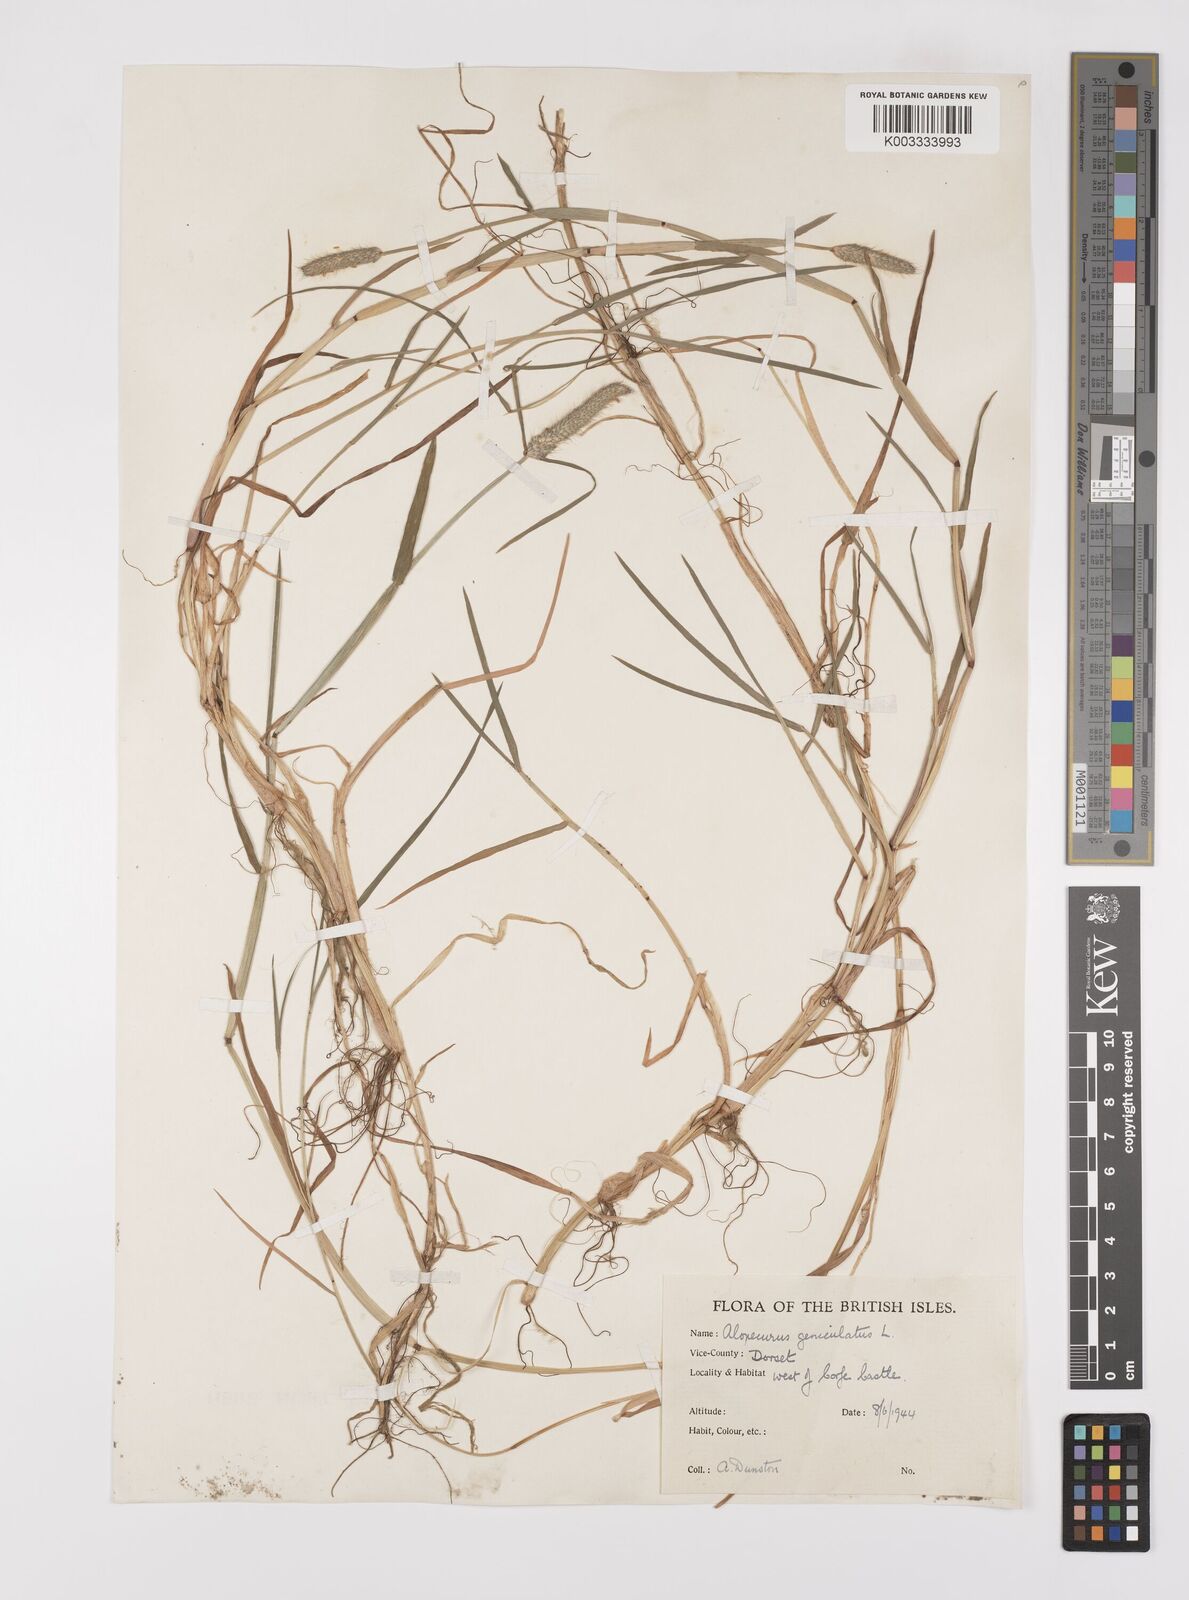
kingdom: Plantae
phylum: Tracheophyta
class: Liliopsida
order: Poales
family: Poaceae
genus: Alopecurus
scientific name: Alopecurus geniculatus
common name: Water foxtail
